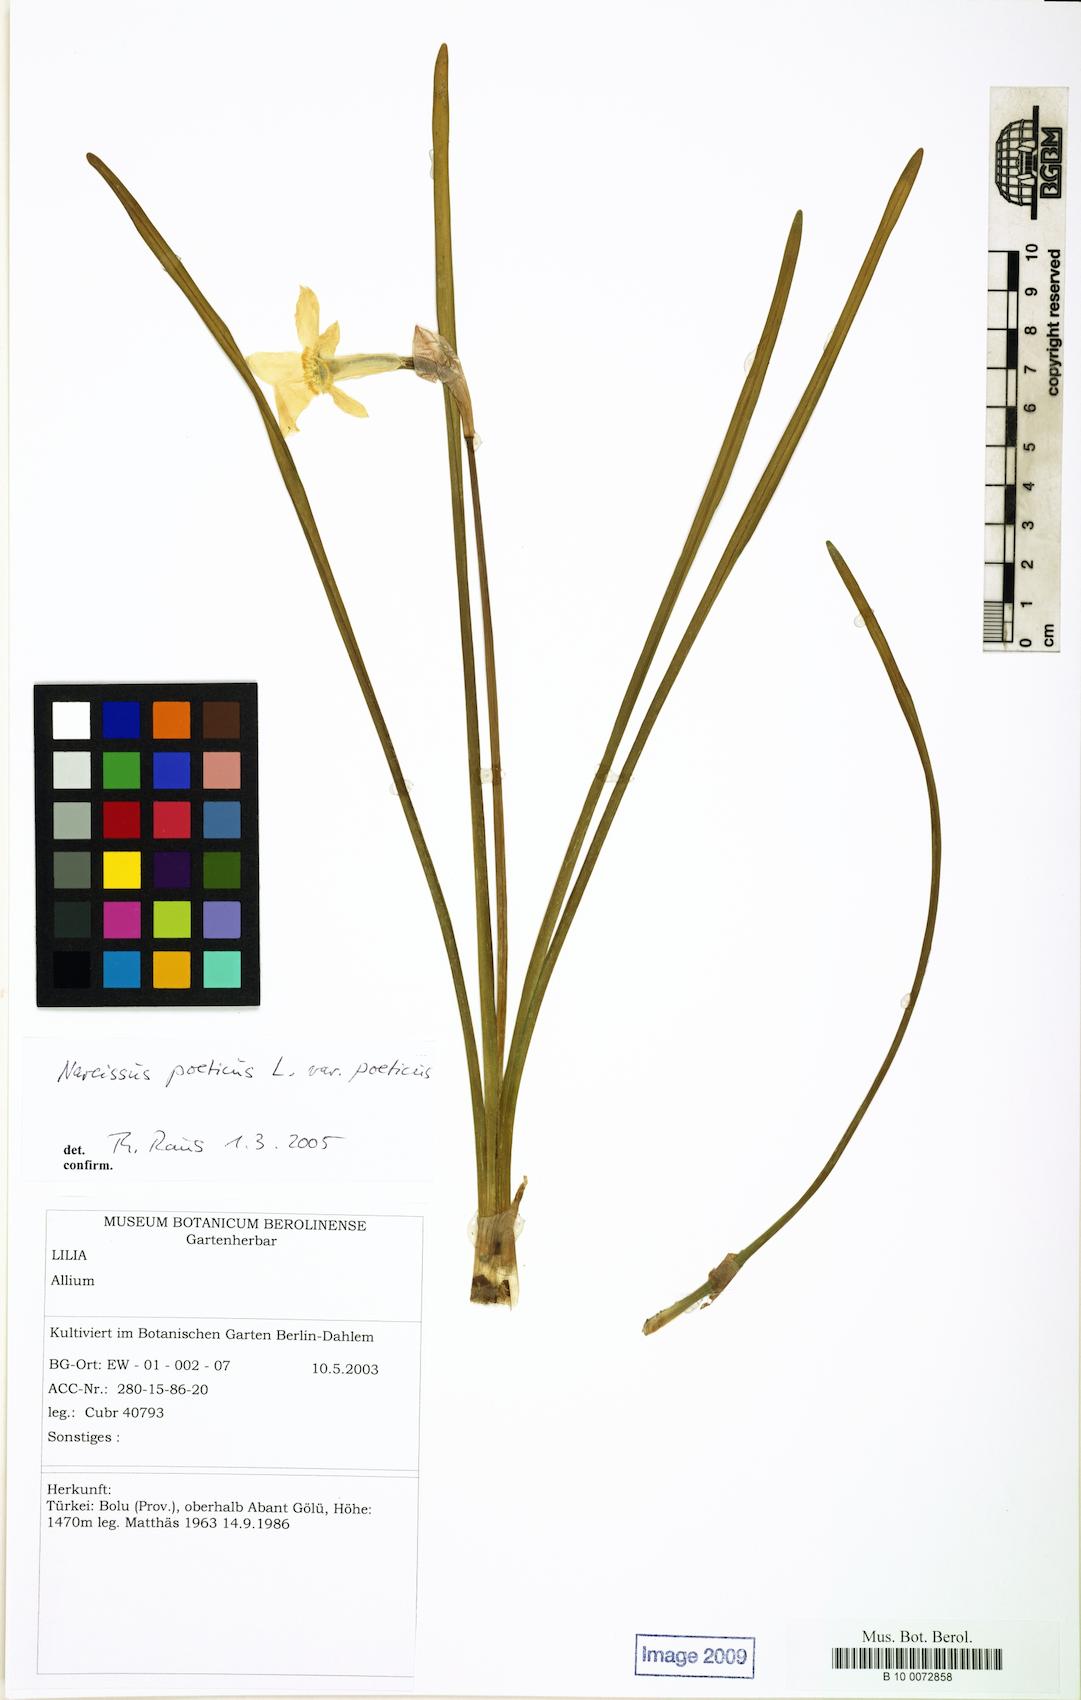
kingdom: Plantae
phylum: Tracheophyta
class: Liliopsida
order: Asparagales
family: Amaryllidaceae
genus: Narcissus
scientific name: Narcissus poeticus
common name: Pheasant's-eye daffodil
